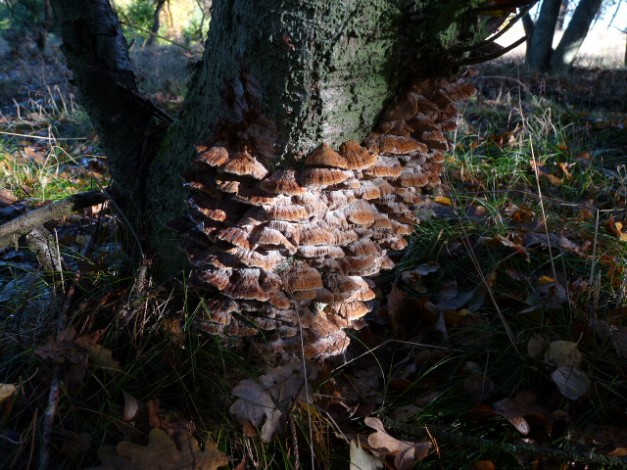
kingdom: Fungi
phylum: Basidiomycota
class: Agaricomycetes
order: Hymenochaetales
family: Hymenochaetaceae
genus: Xanthoporia
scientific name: Xanthoporia radiata
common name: elle-spejlporesvamp
